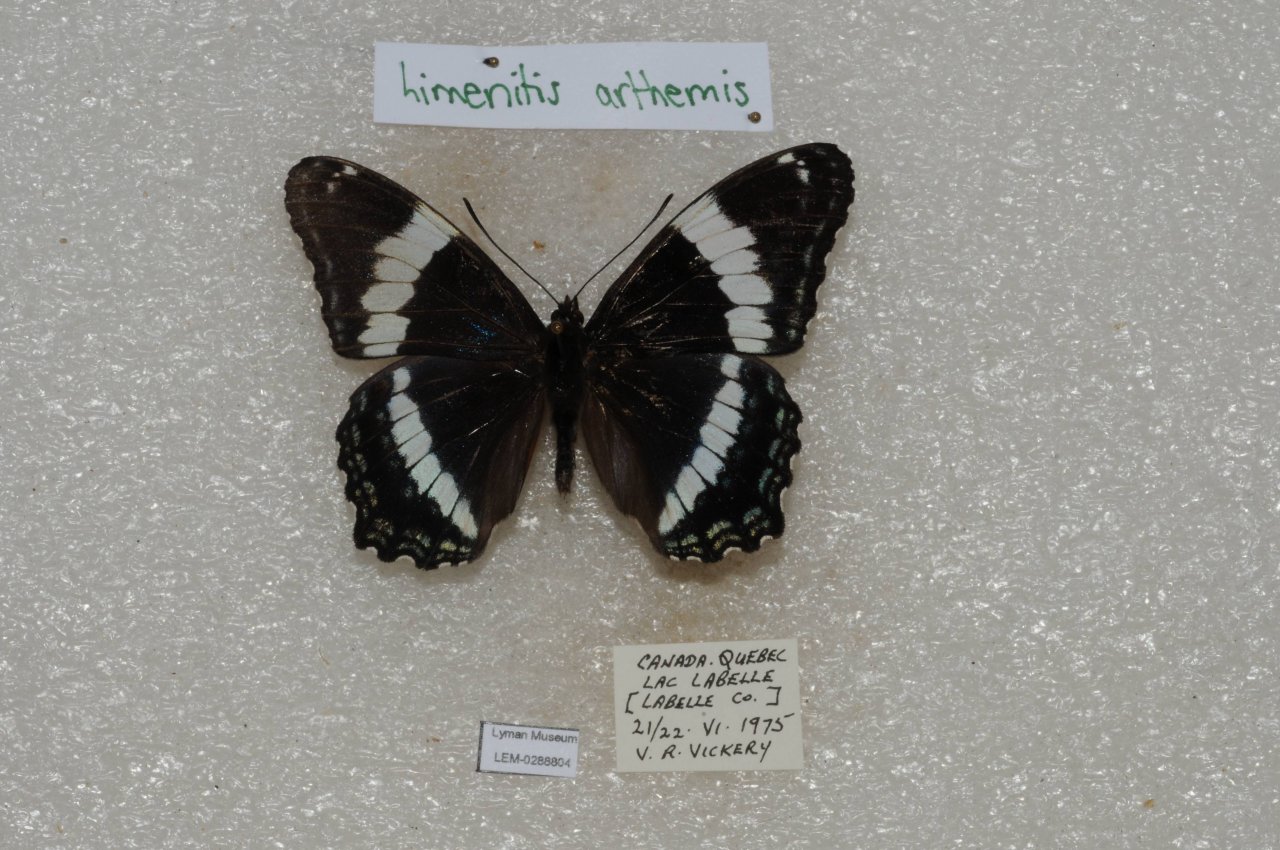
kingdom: Animalia
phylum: Arthropoda
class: Insecta
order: Lepidoptera
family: Nymphalidae
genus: Limenitis
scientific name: Limenitis arthemis
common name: Red-spotted Admiral
